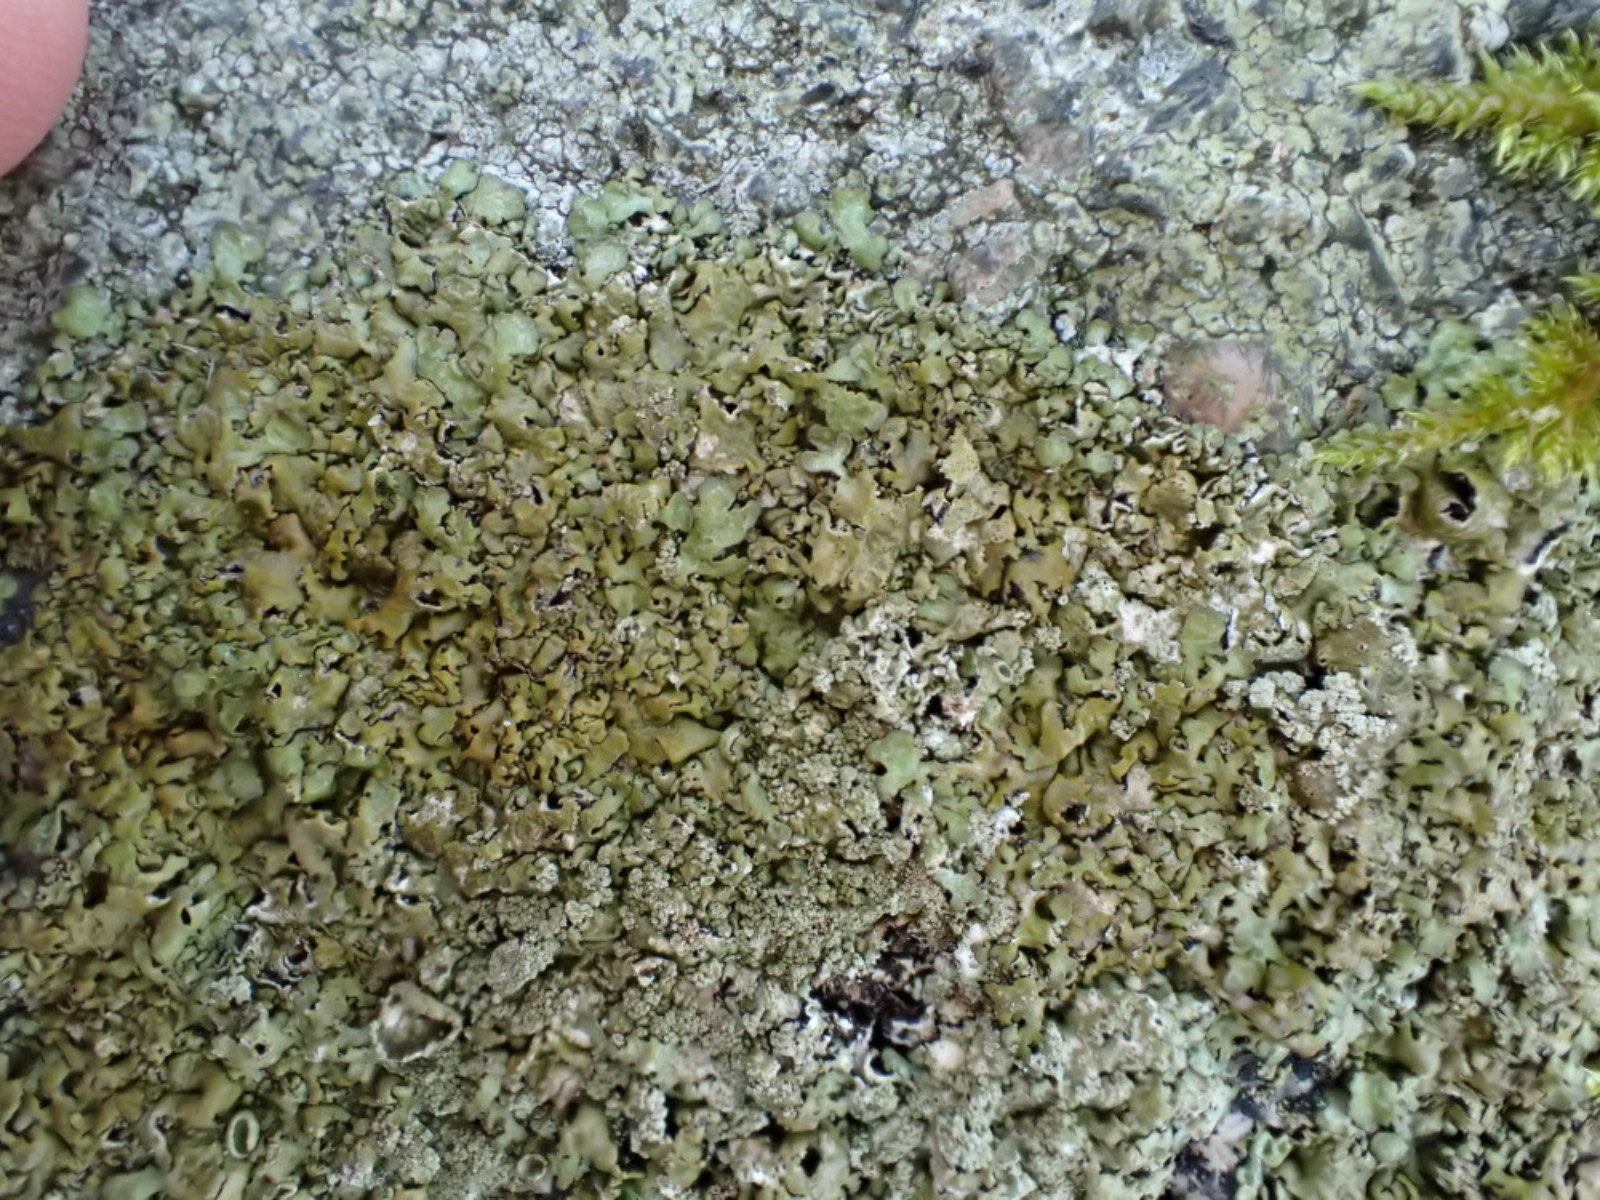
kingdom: Fungi
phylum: Ascomycota
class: Lecanoromycetes
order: Lecanorales
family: Parmeliaceae
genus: Xanthoparmelia
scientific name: Xanthoparmelia loxodes
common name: knudret skållav
